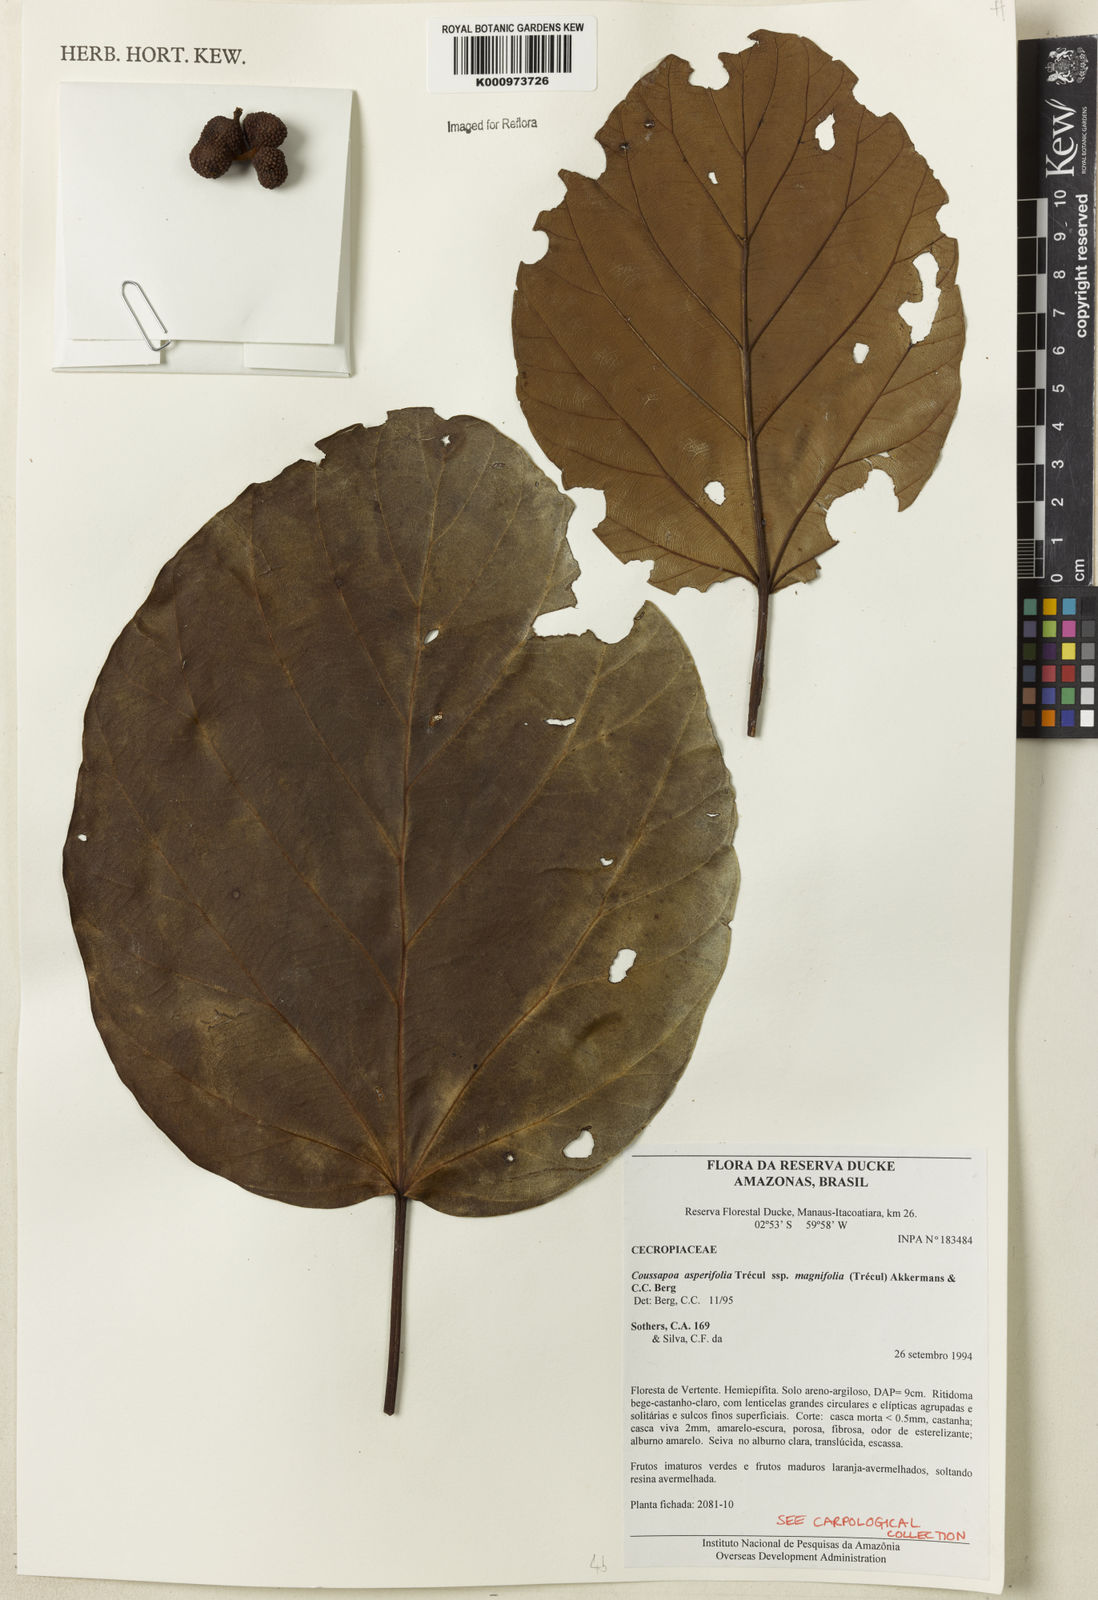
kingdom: Plantae
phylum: Tracheophyta
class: Magnoliopsida
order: Rosales
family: Urticaceae
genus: Coussapoa
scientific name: Coussapoa
